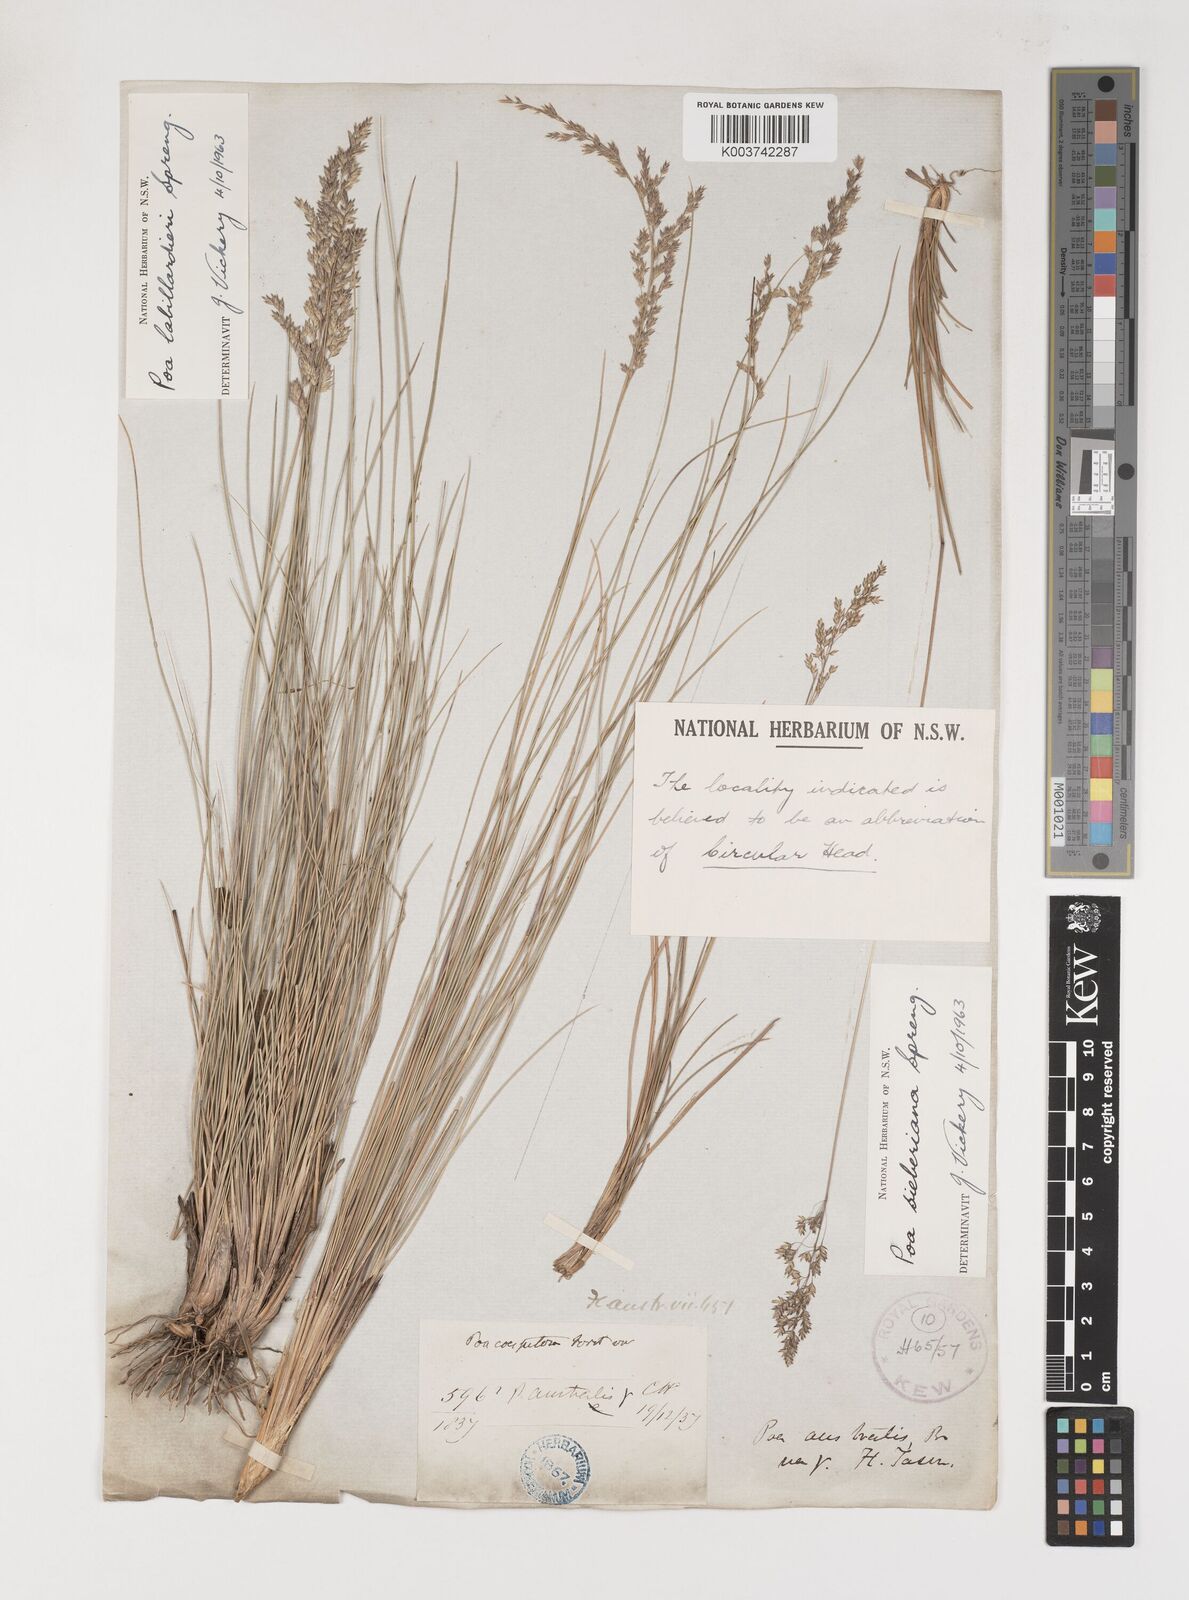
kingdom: Plantae
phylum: Tracheophyta
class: Liliopsida
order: Poales
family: Poaceae
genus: Poa
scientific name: Poa labillardierei
